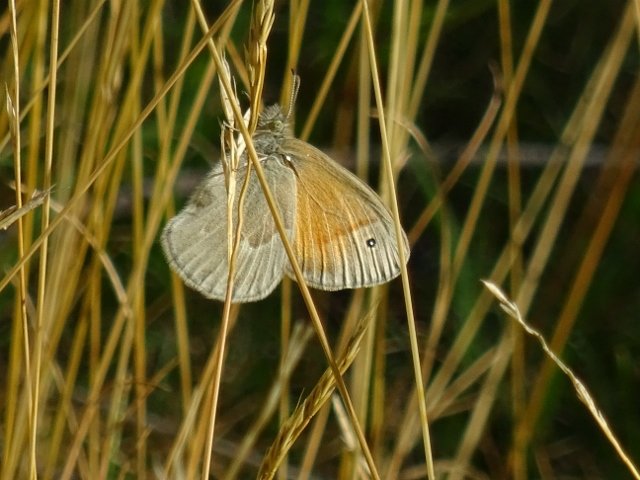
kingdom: Animalia
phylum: Arthropoda
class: Insecta
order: Lepidoptera
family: Nymphalidae
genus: Coenonympha
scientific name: Coenonympha tullia
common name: Large Heath
